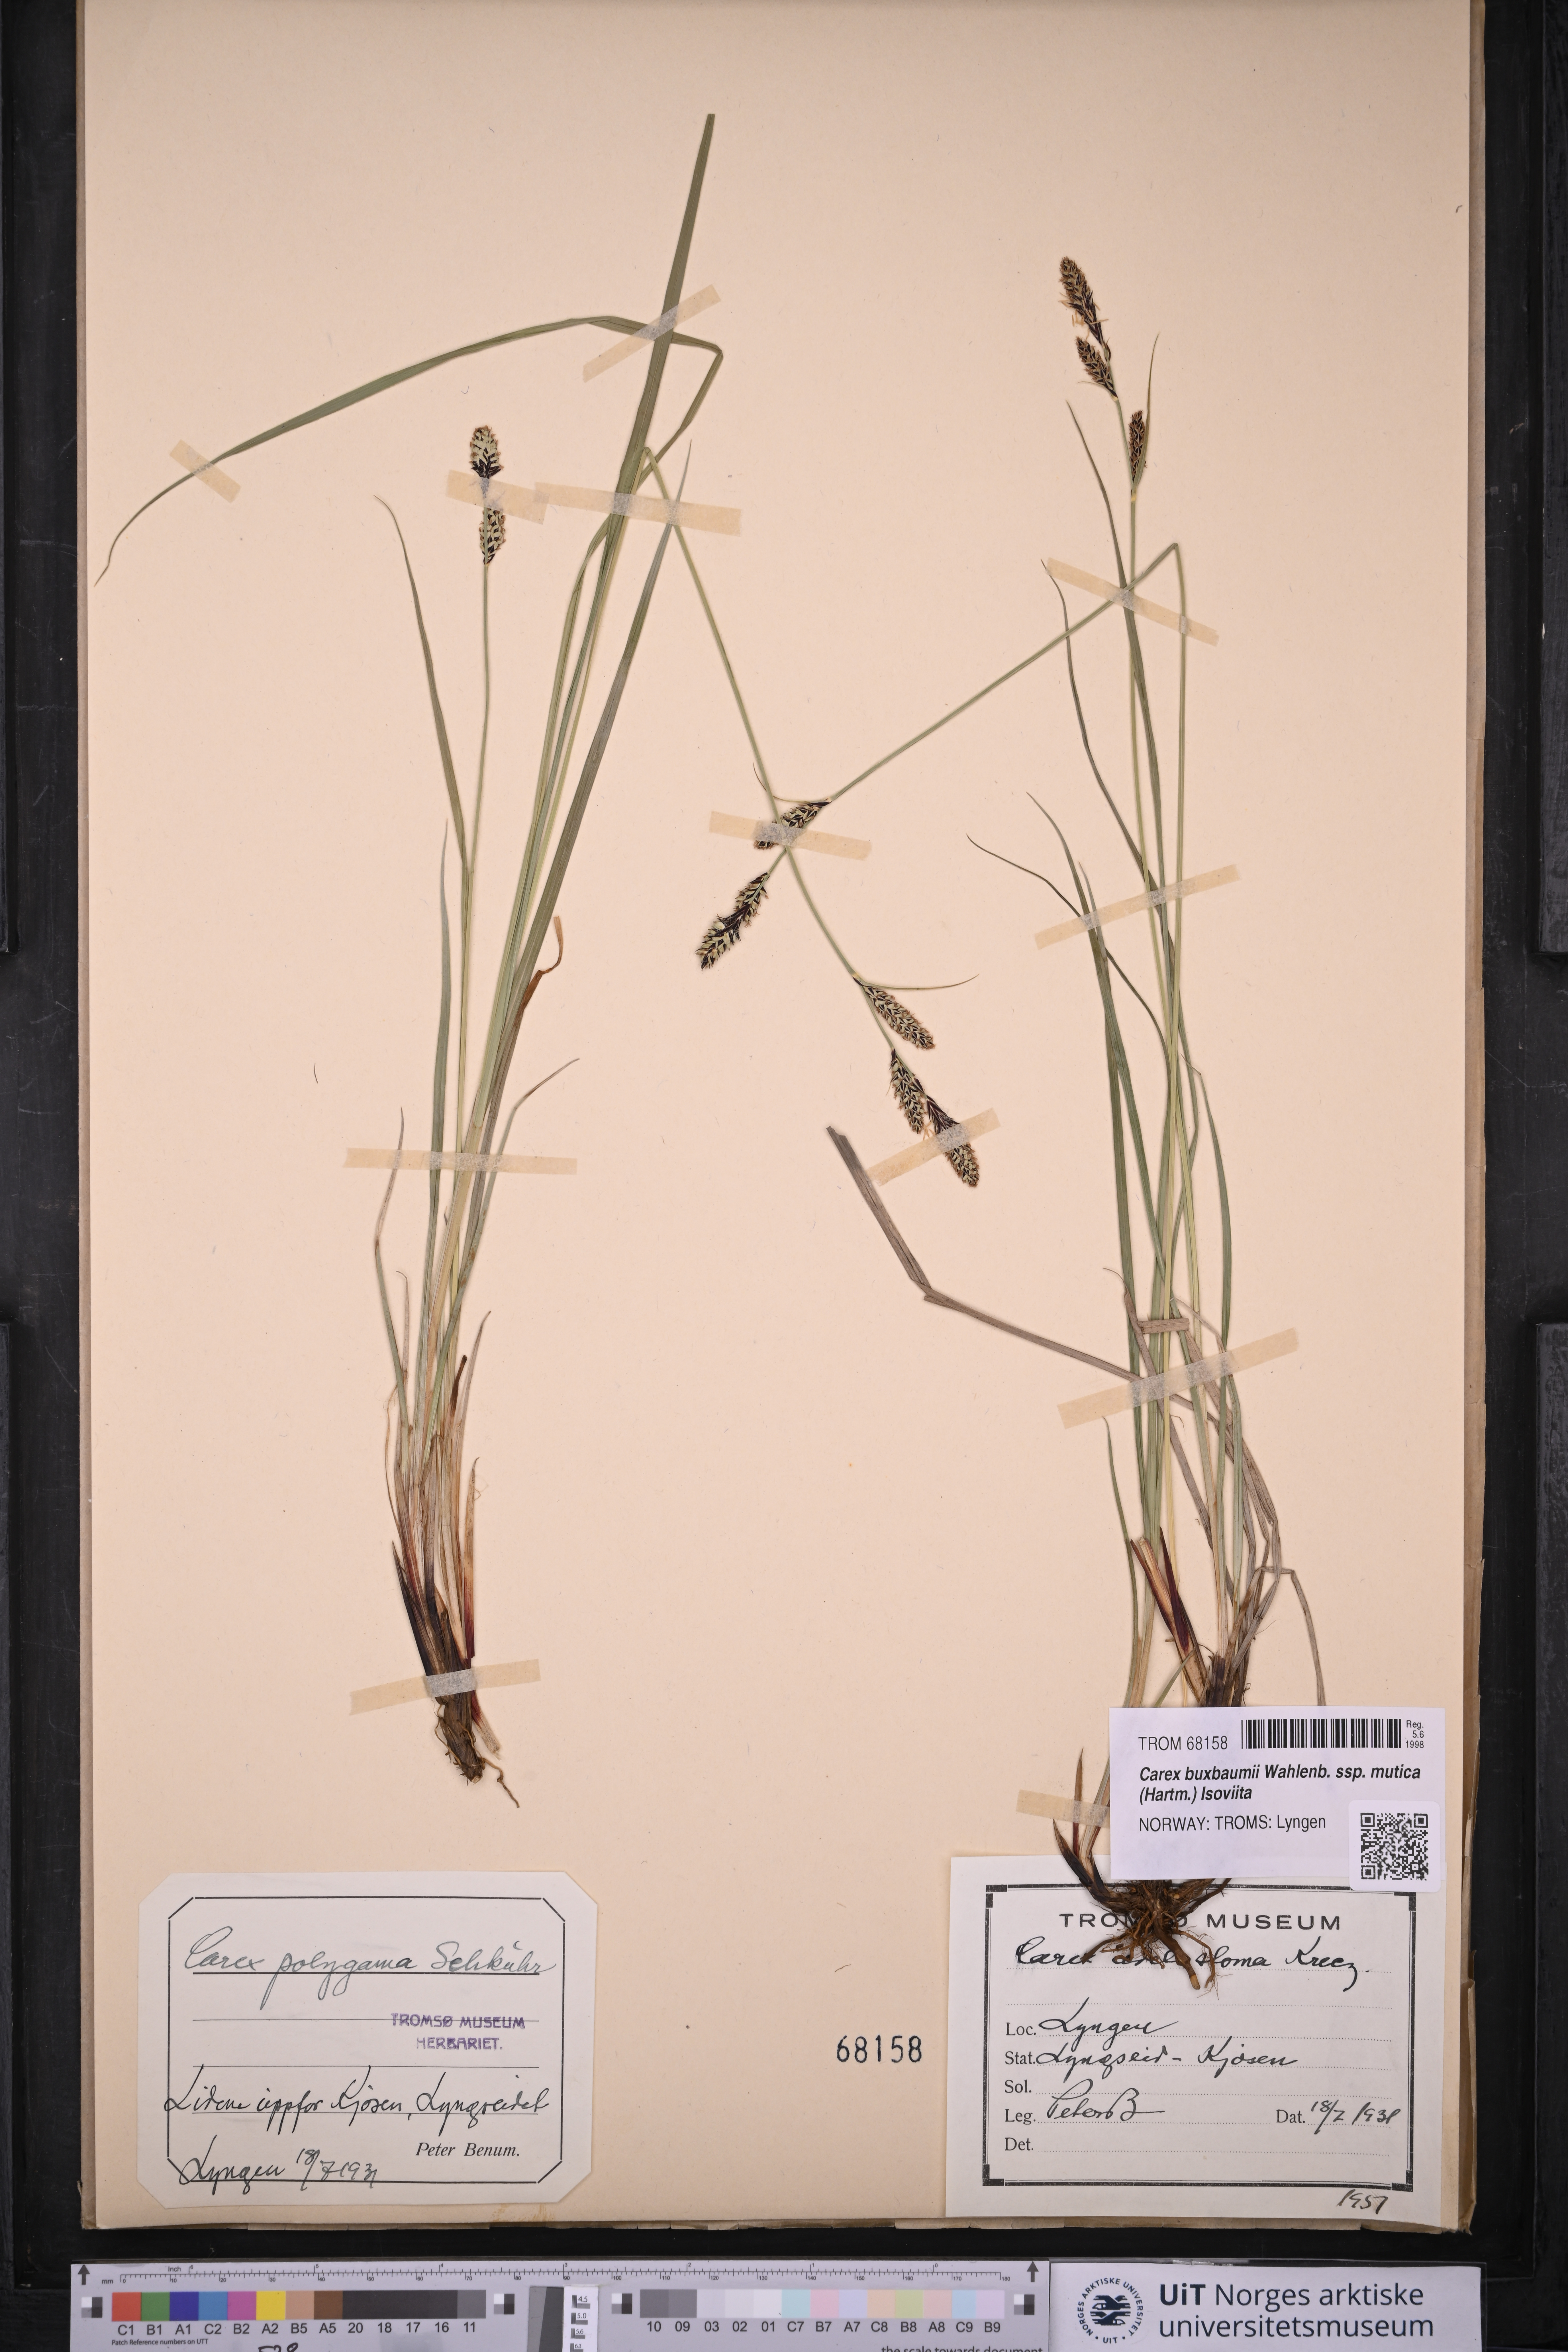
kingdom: Plantae
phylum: Tracheophyta
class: Liliopsida
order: Poales
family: Cyperaceae
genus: Carex
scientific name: Carex adelostoma
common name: Circumpolar sedge
